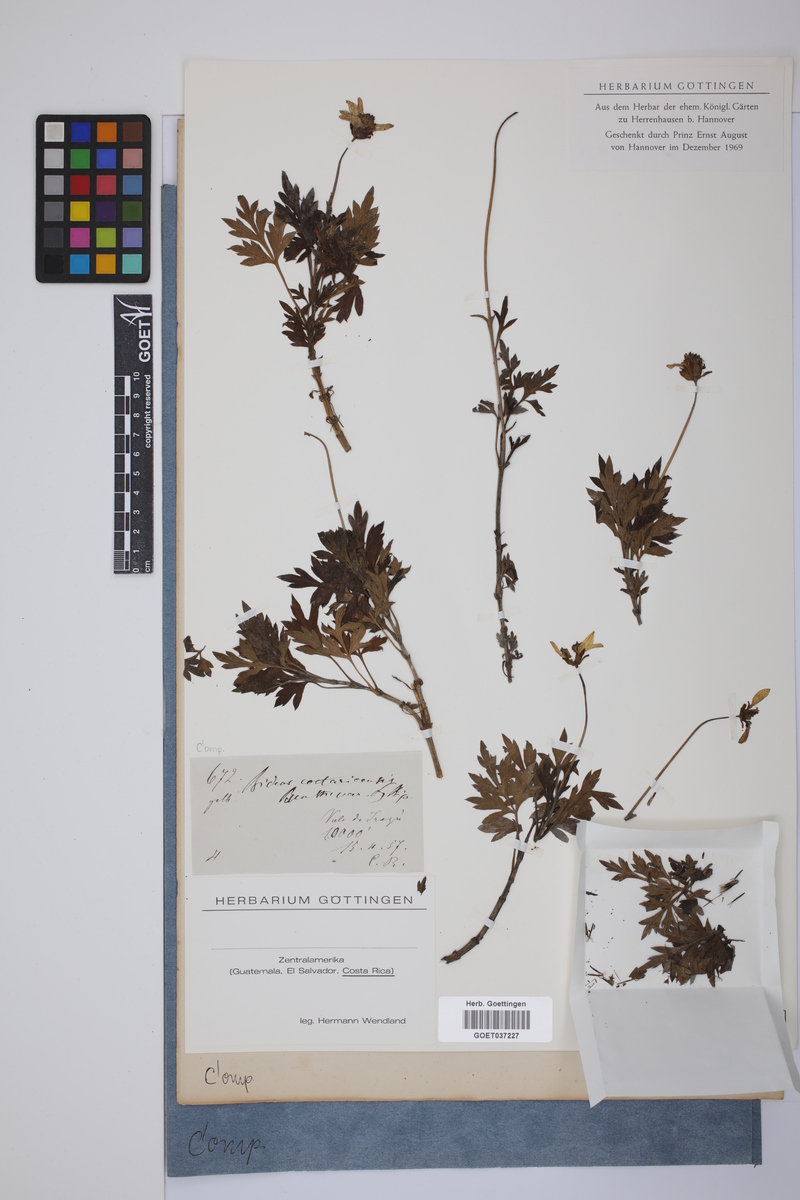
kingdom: Plantae
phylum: Tracheophyta
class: Magnoliopsida
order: Asterales
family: Asteraceae
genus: Bidens
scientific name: Bidens ostruthioides
